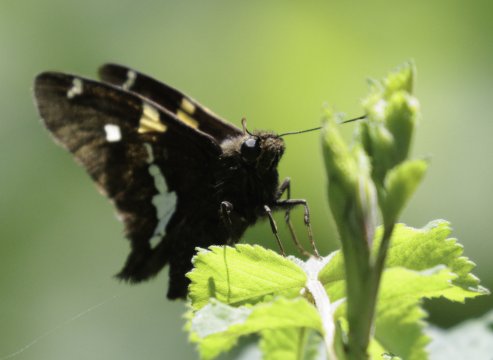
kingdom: Animalia
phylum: Arthropoda
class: Insecta
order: Lepidoptera
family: Hesperiidae
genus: Epargyreus
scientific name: Epargyreus clarus
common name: Silver-spotted Skipper
